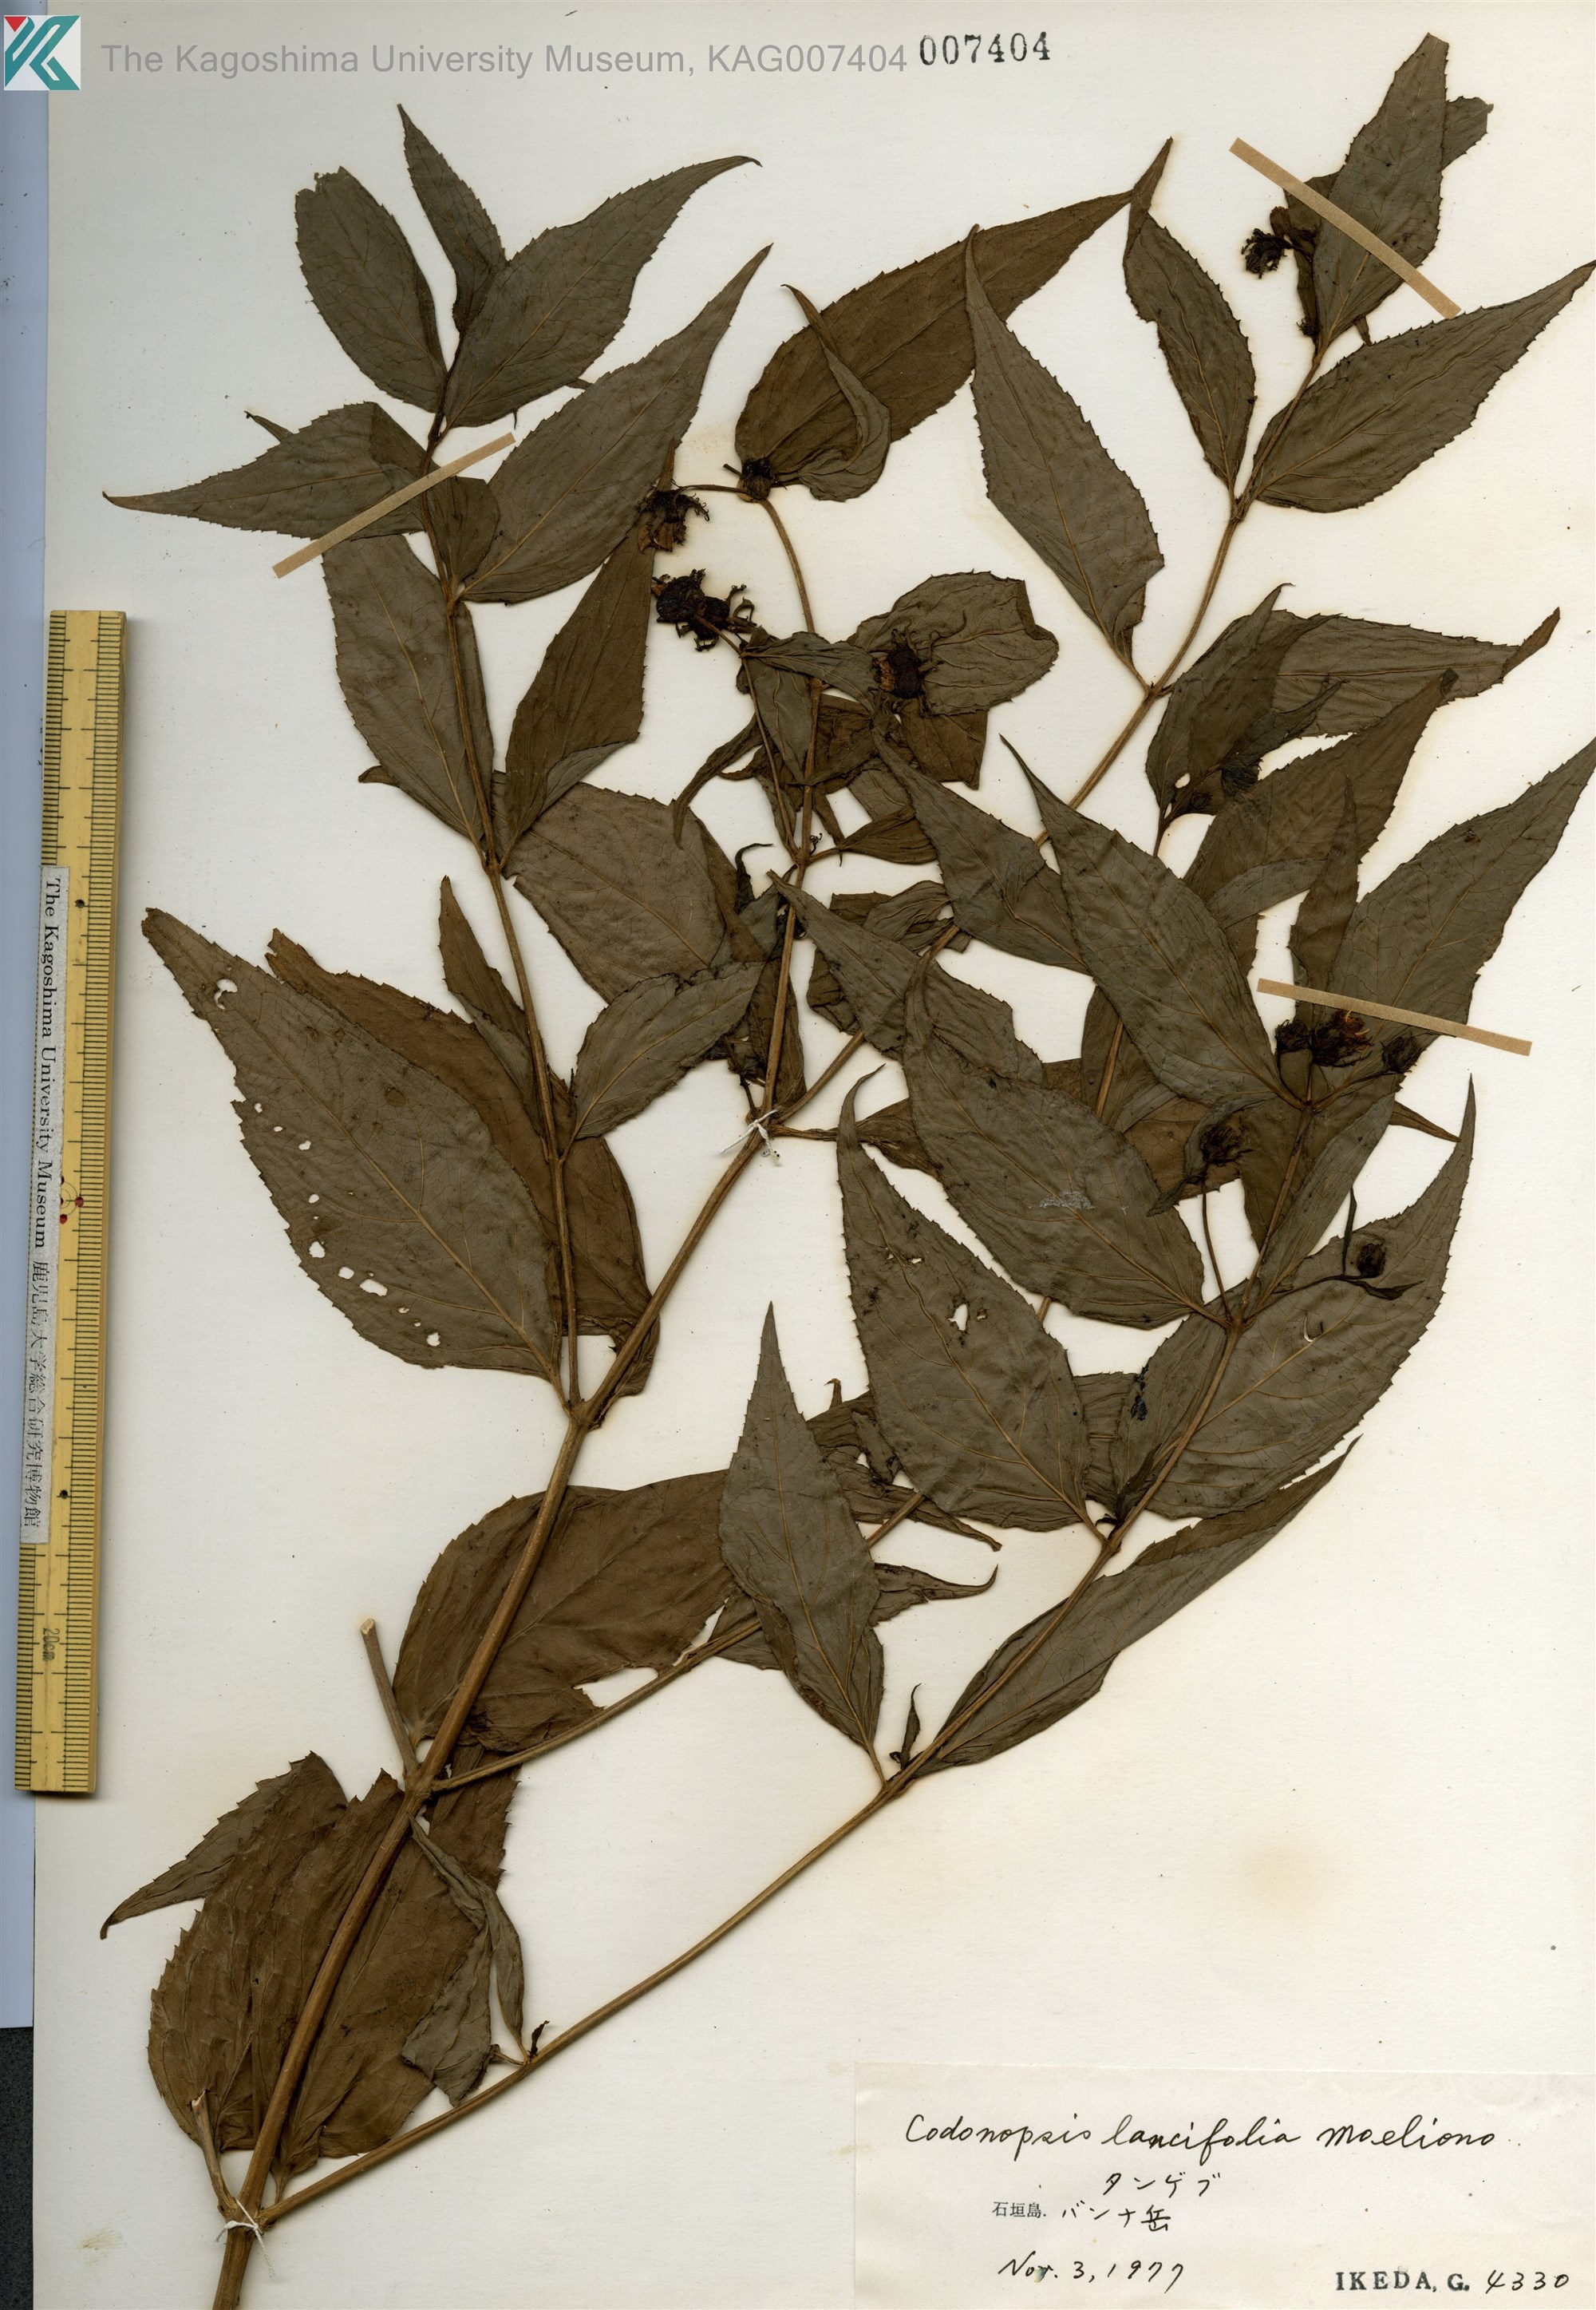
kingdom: Plantae
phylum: Tracheophyta
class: Magnoliopsida
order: Asterales
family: Campanulaceae
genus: Cyclocodon
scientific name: Cyclocodon lancifolius
